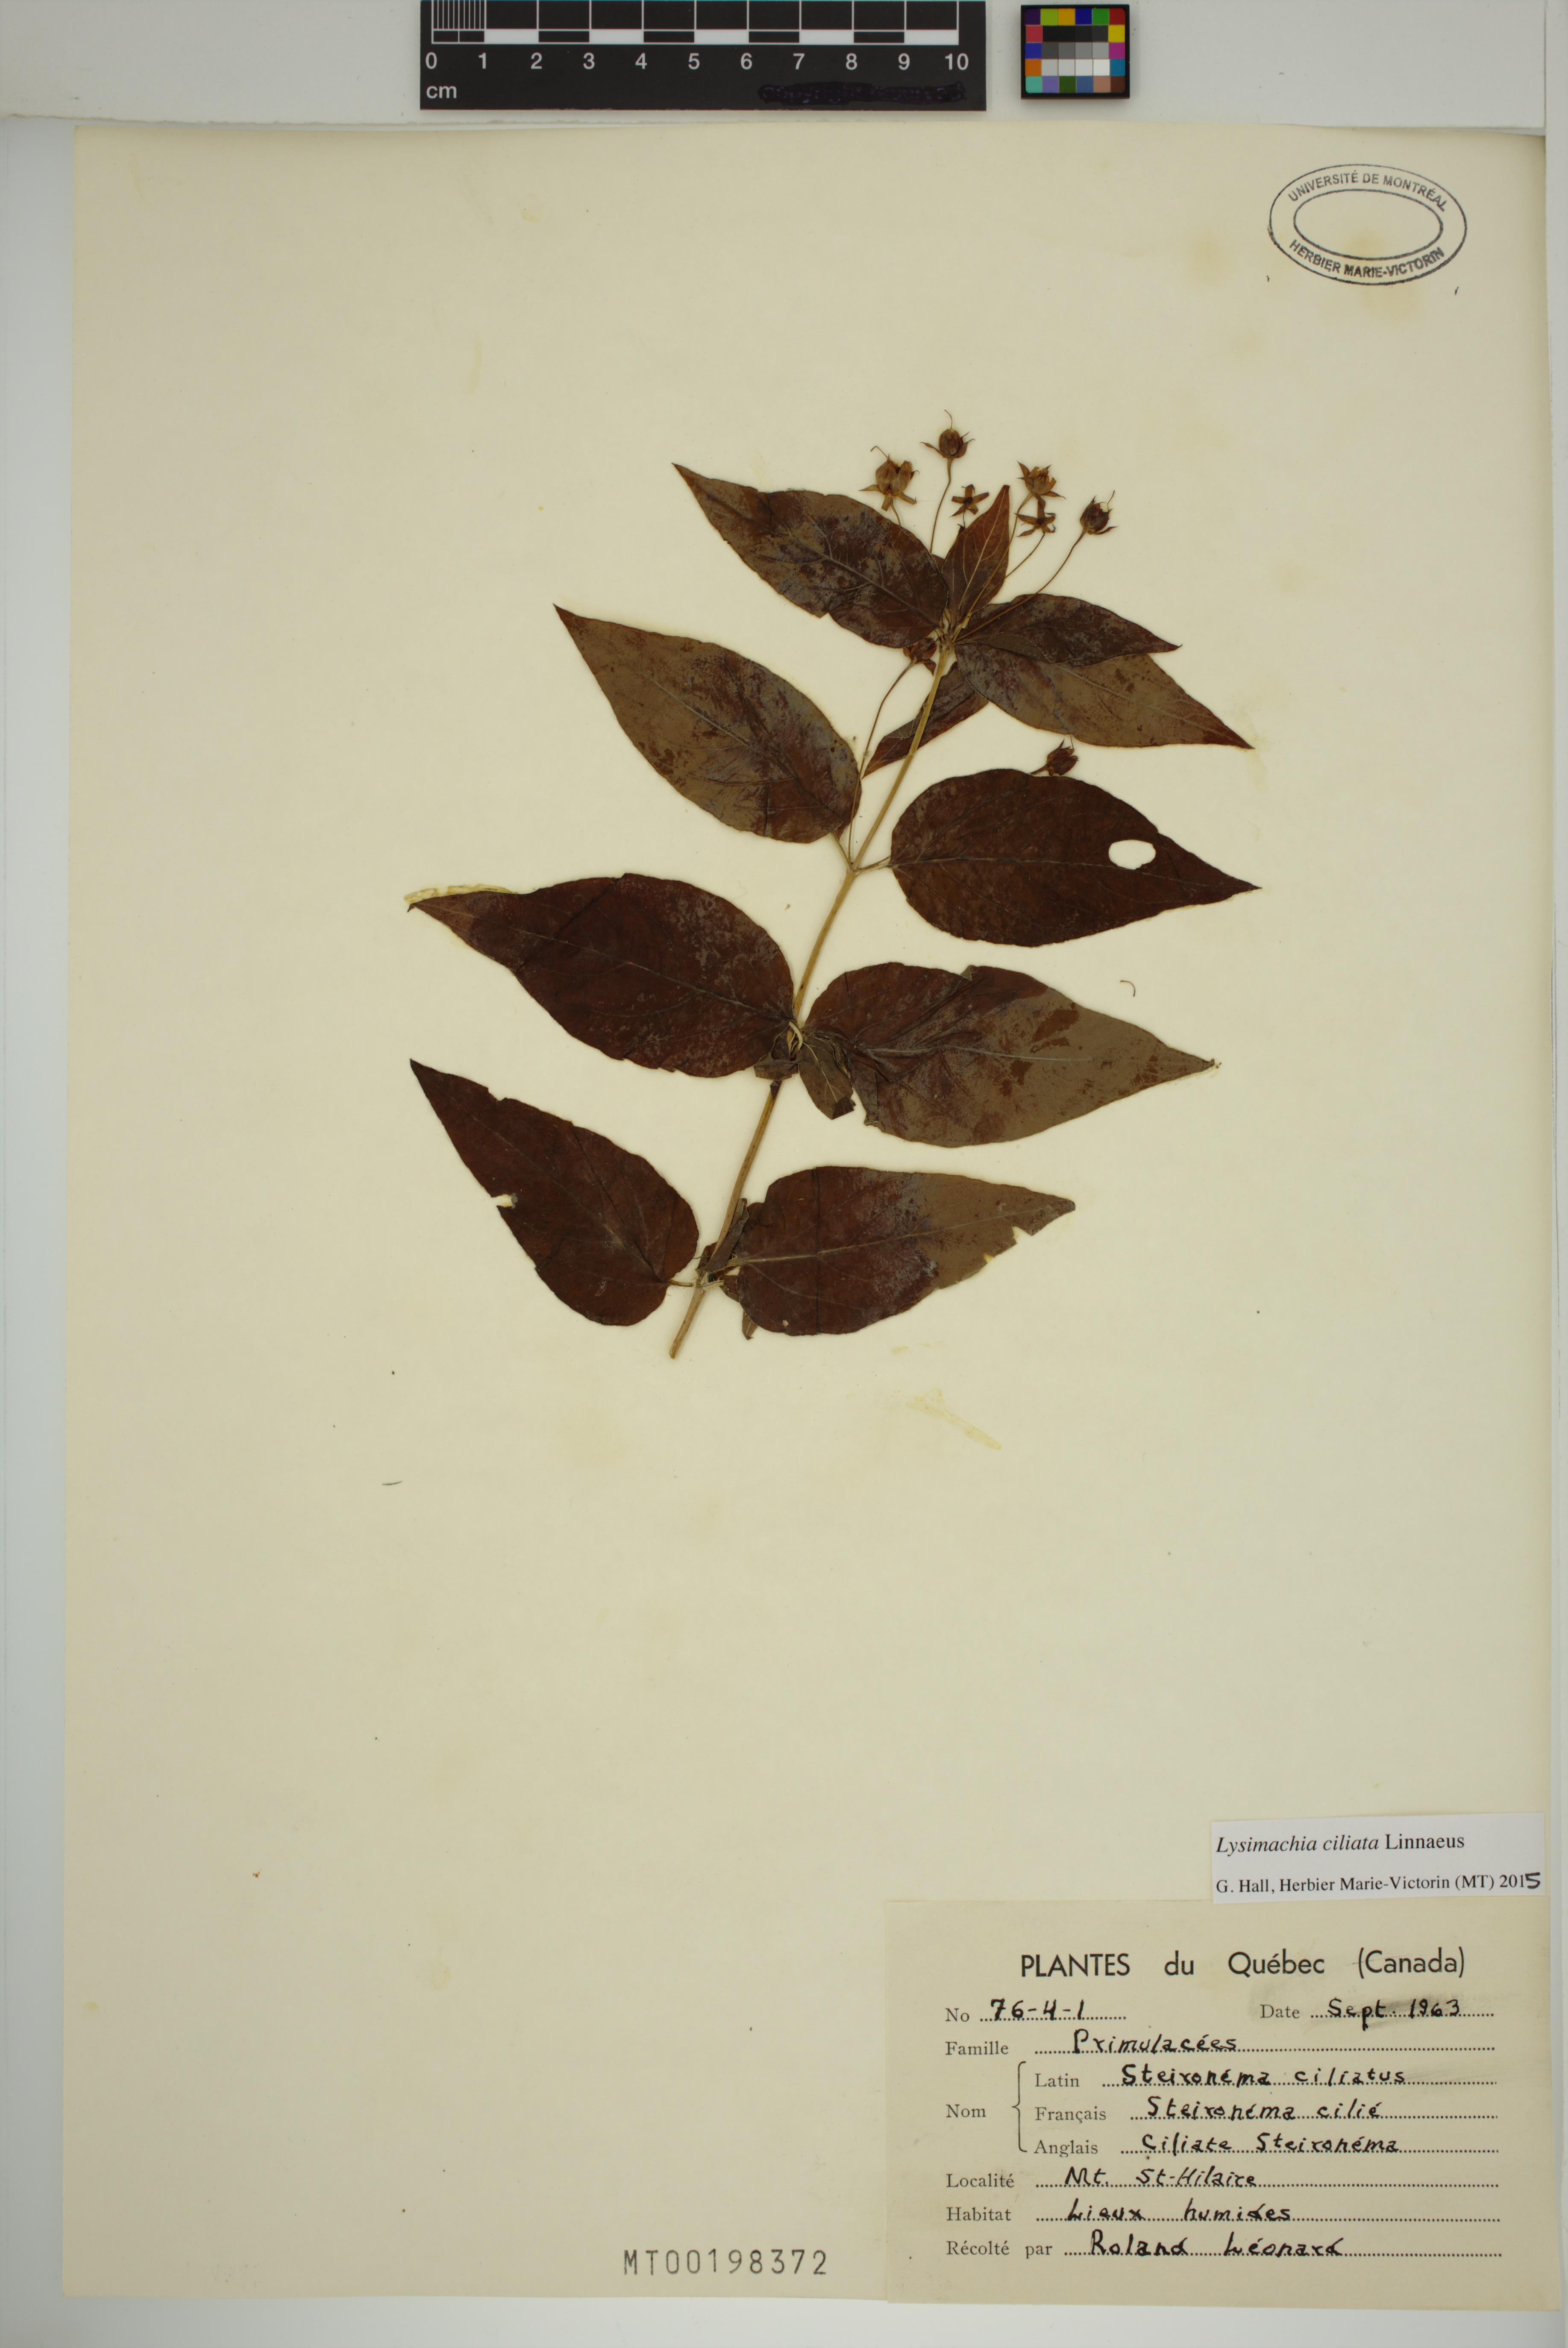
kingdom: Plantae
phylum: Tracheophyta
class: Magnoliopsida
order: Ericales
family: Primulaceae
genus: Lysimachia
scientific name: Lysimachia ciliata
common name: Fringed loosestrife
